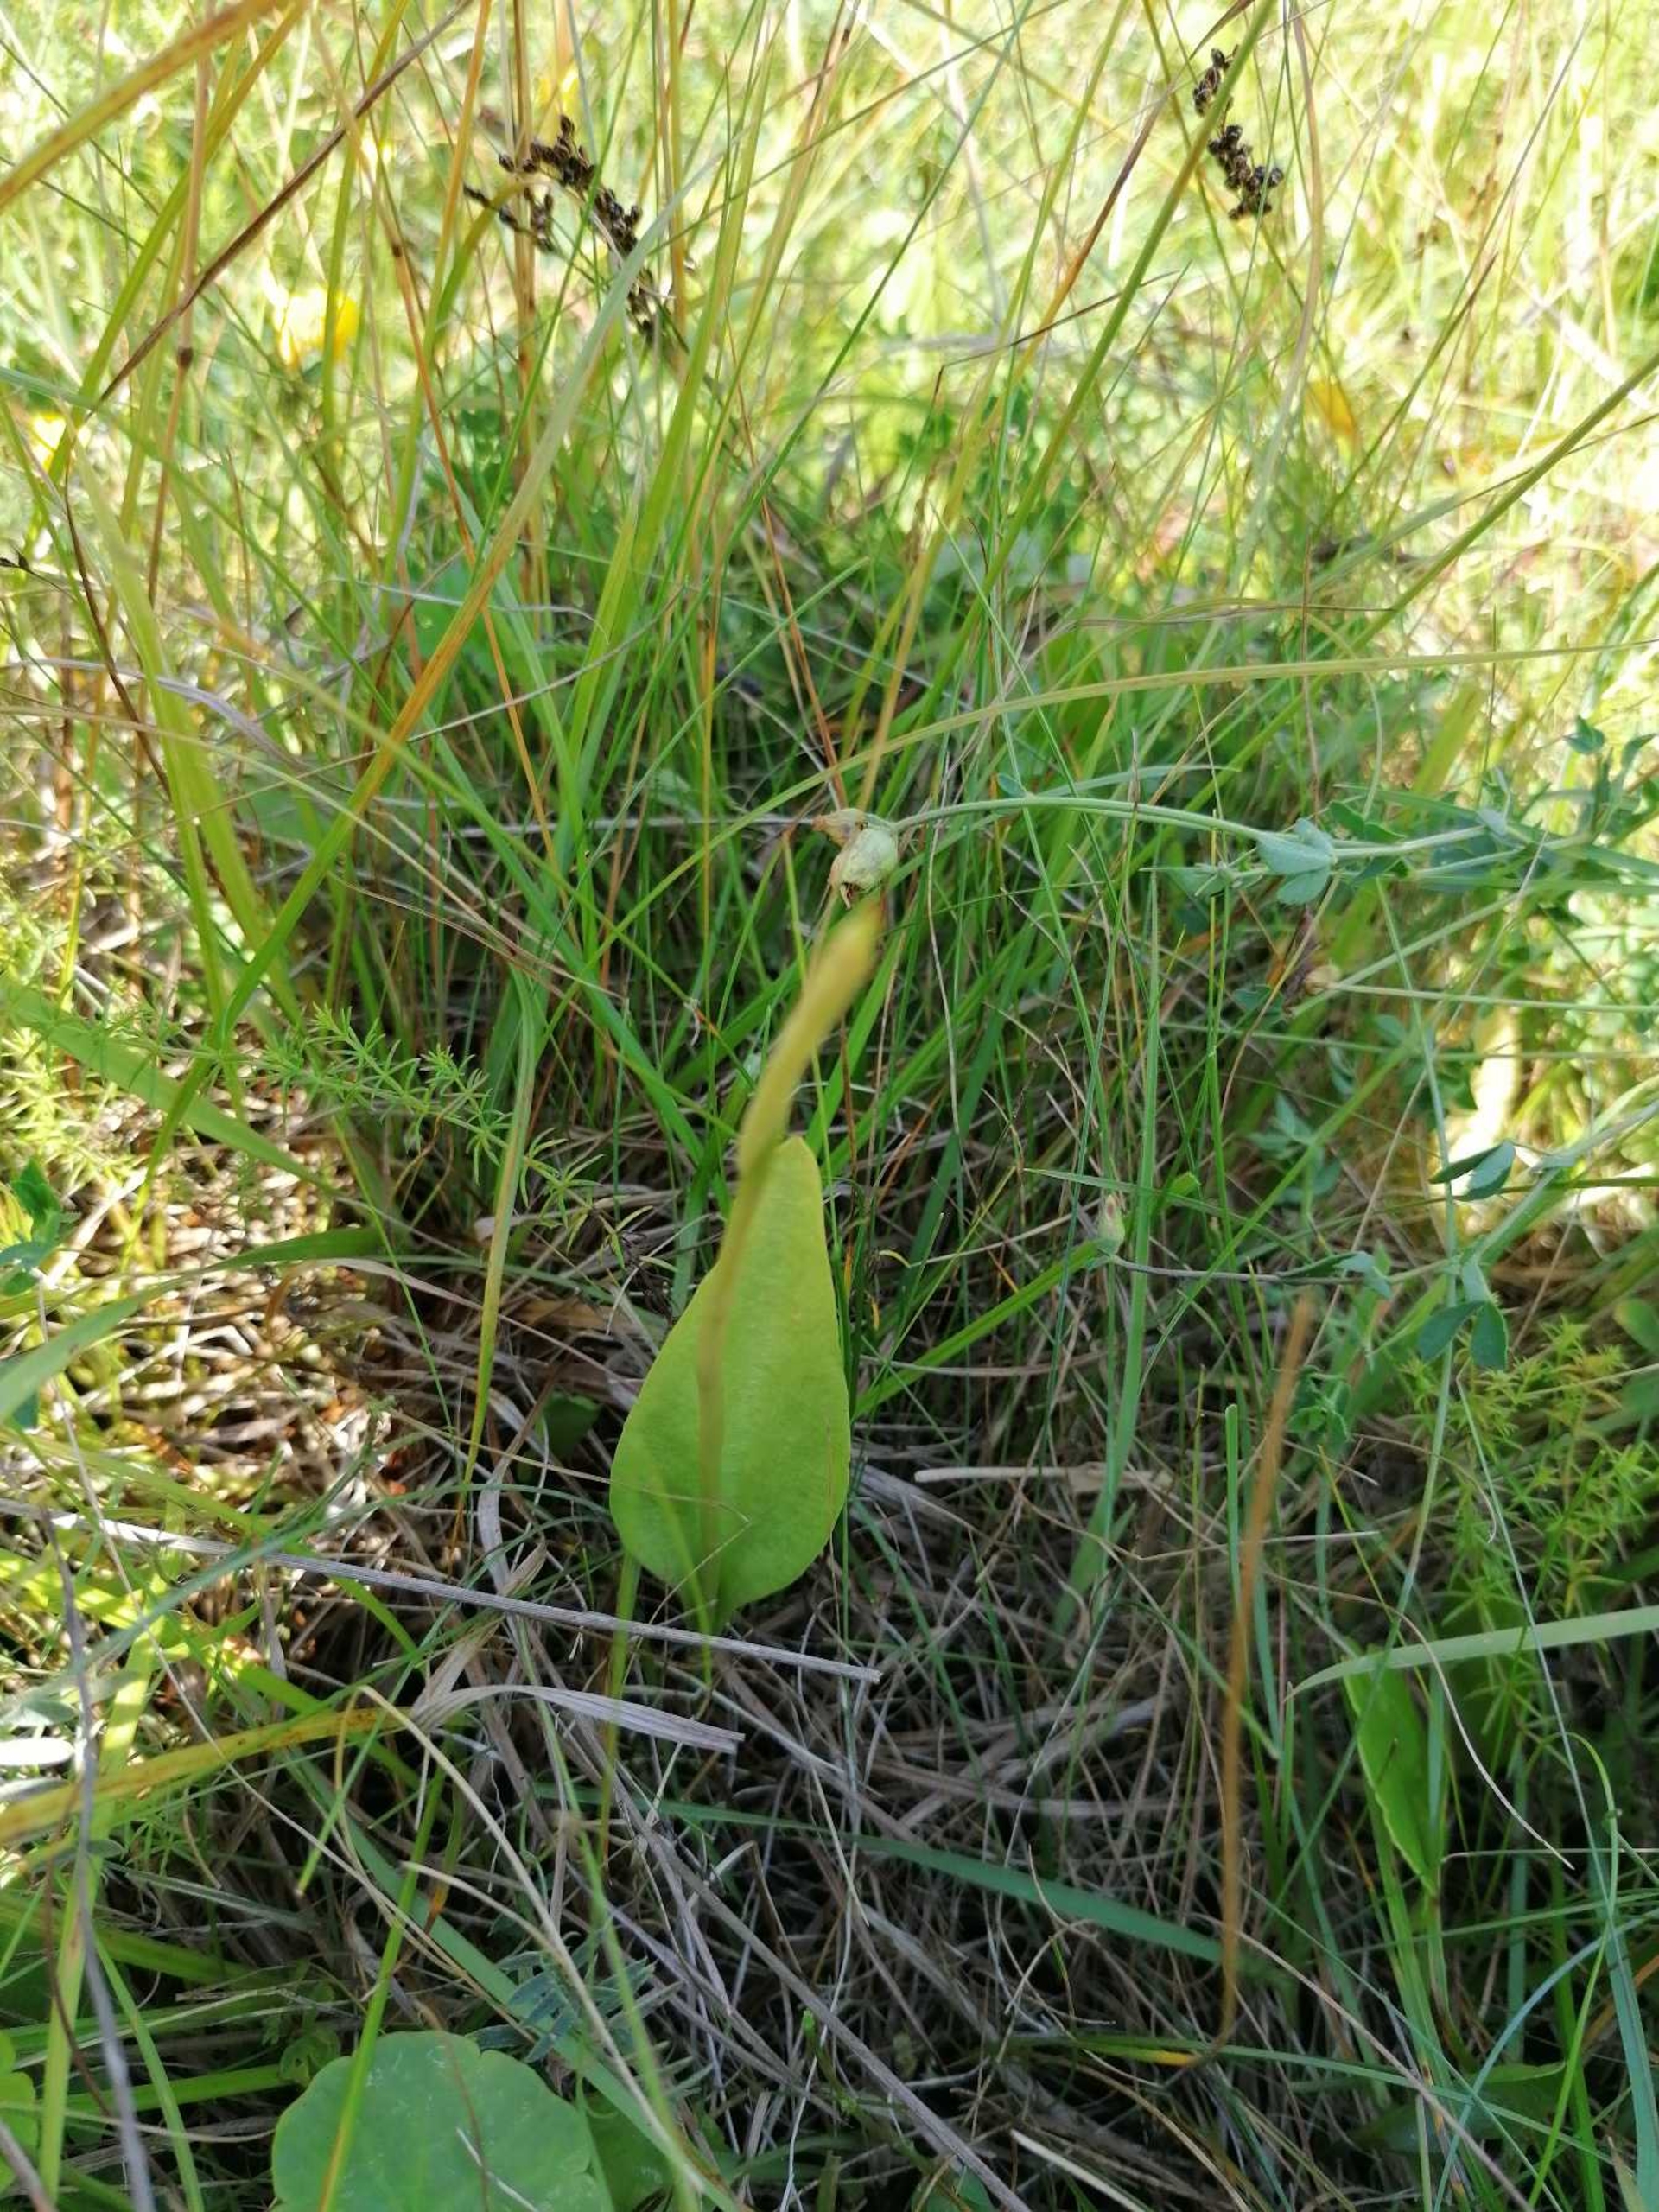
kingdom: Plantae
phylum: Tracheophyta
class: Polypodiopsida
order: Ophioglossales
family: Ophioglossaceae
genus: Ophioglossum
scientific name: Ophioglossum vulgatum
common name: Slangetunge
